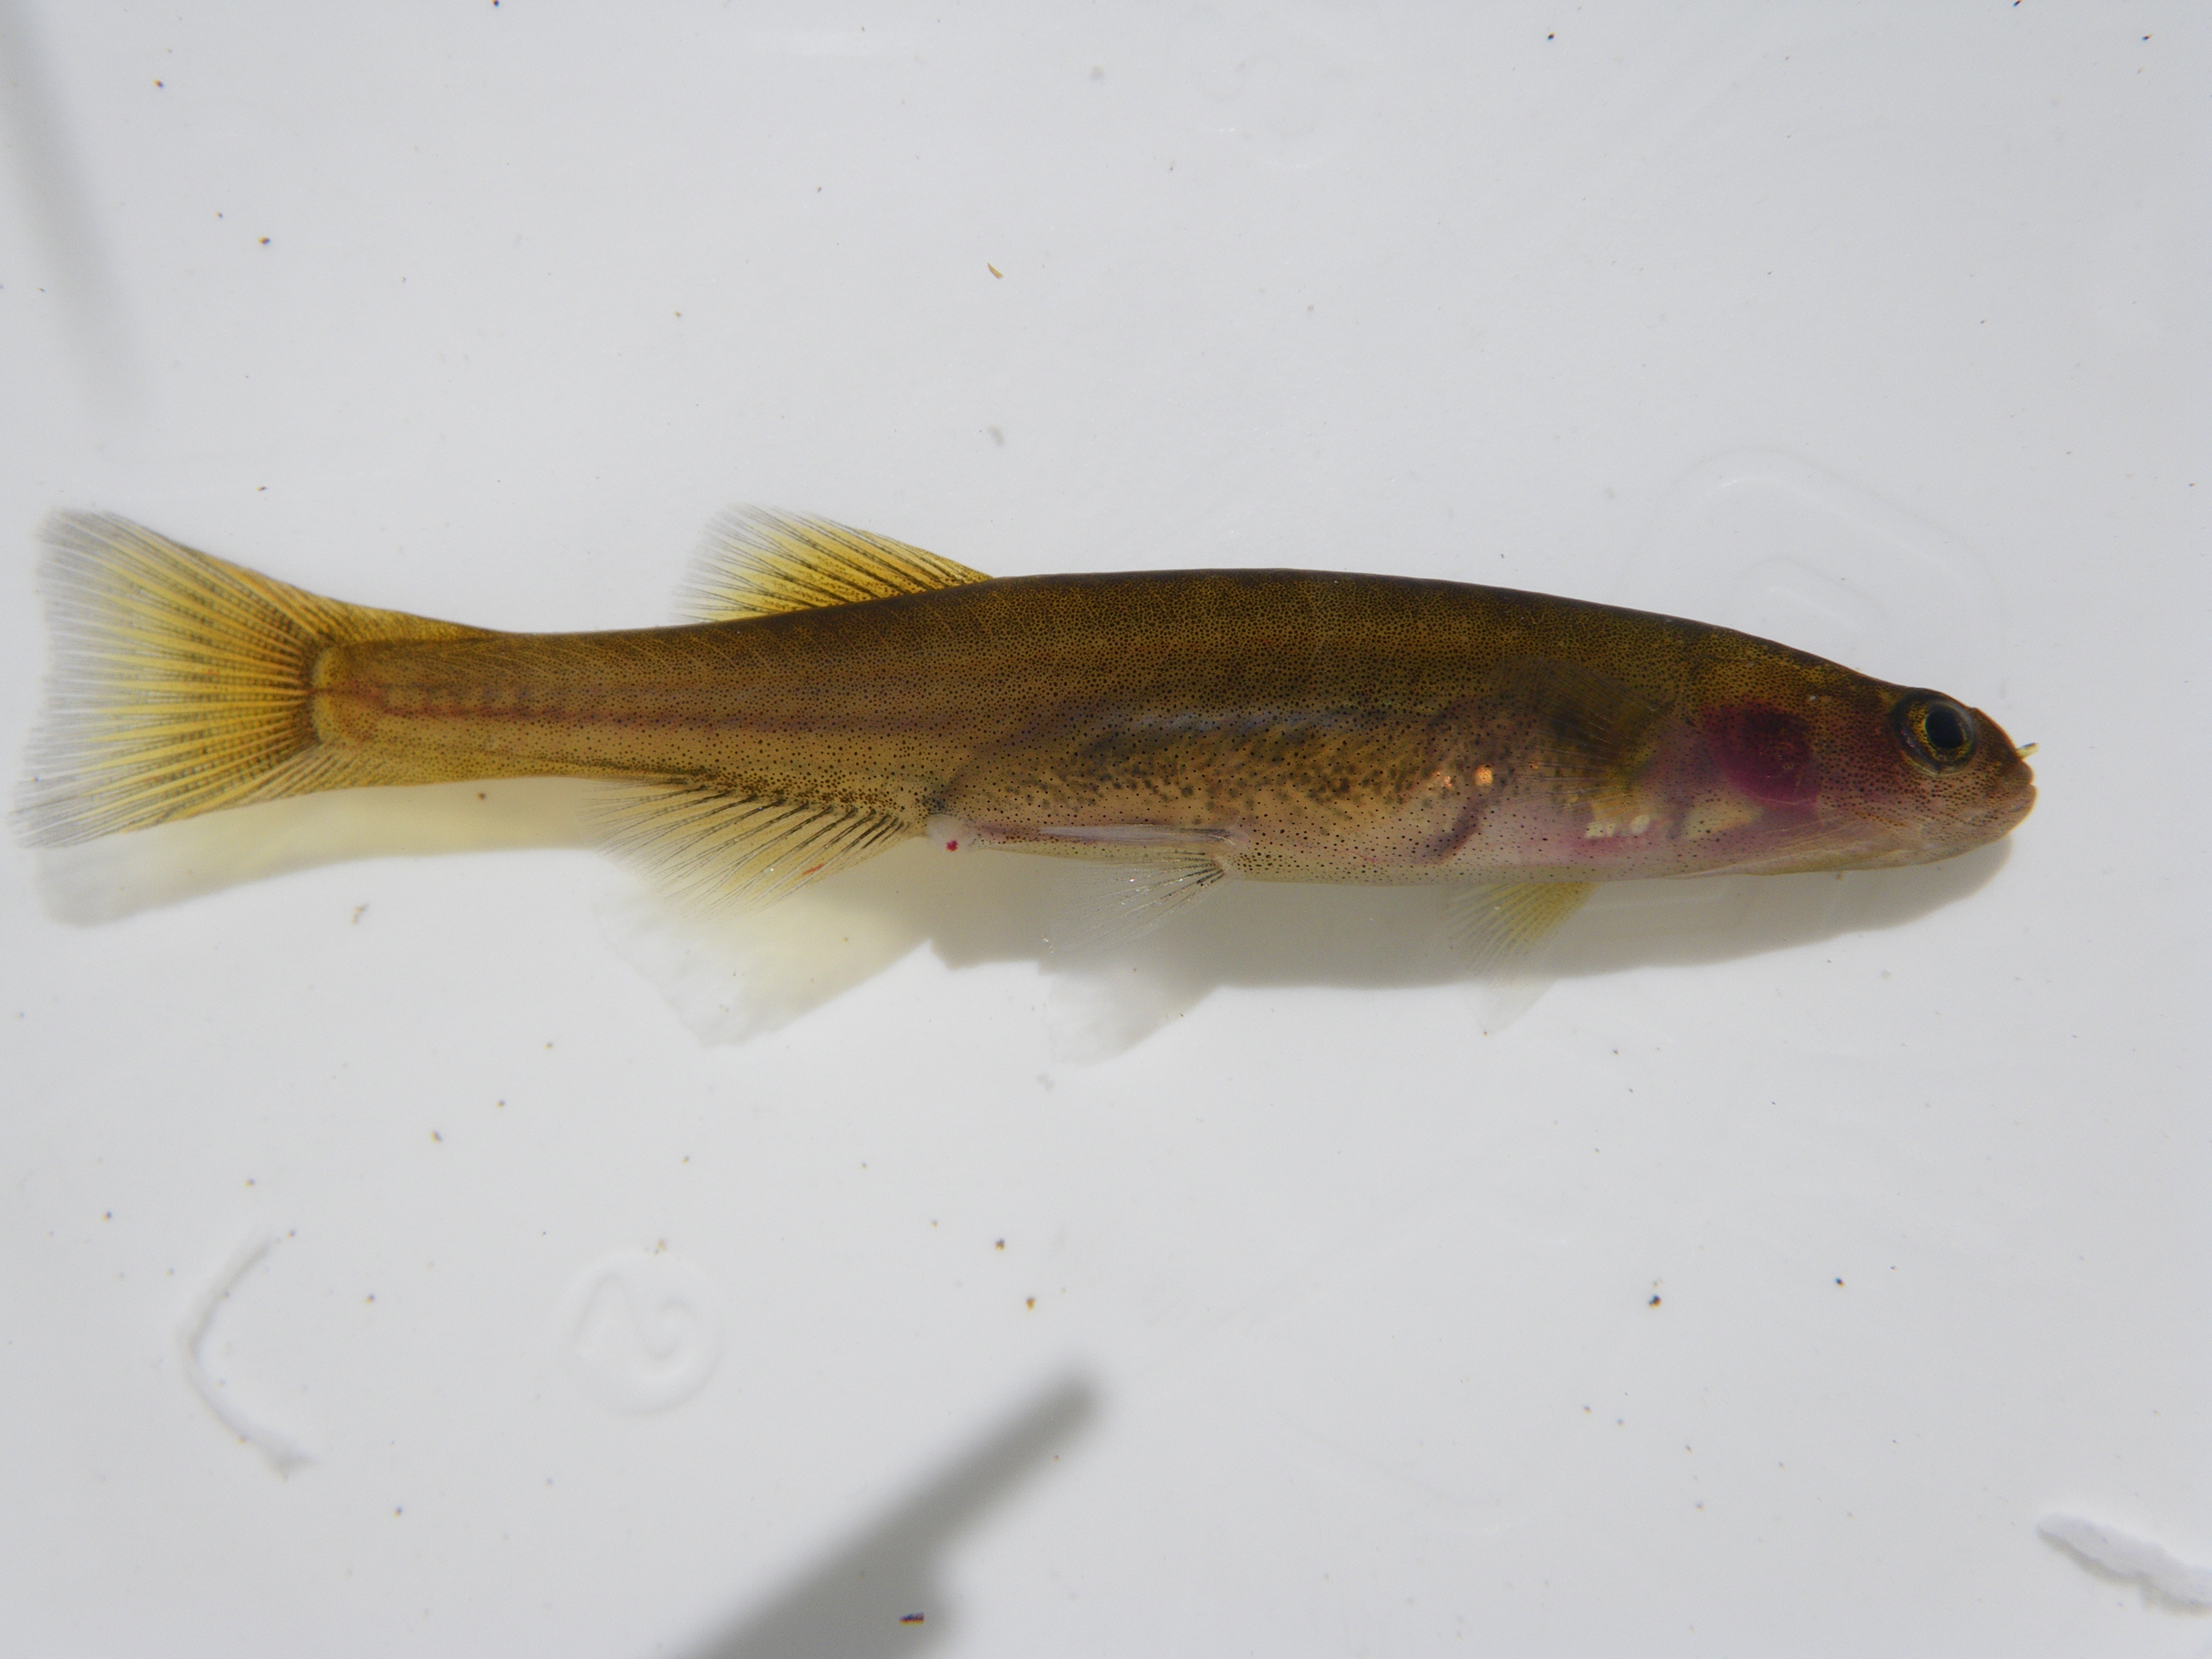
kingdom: Animalia
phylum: Chordata
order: Osmeriformes
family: Galaxiidae
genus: Galaxias
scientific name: Galaxias
